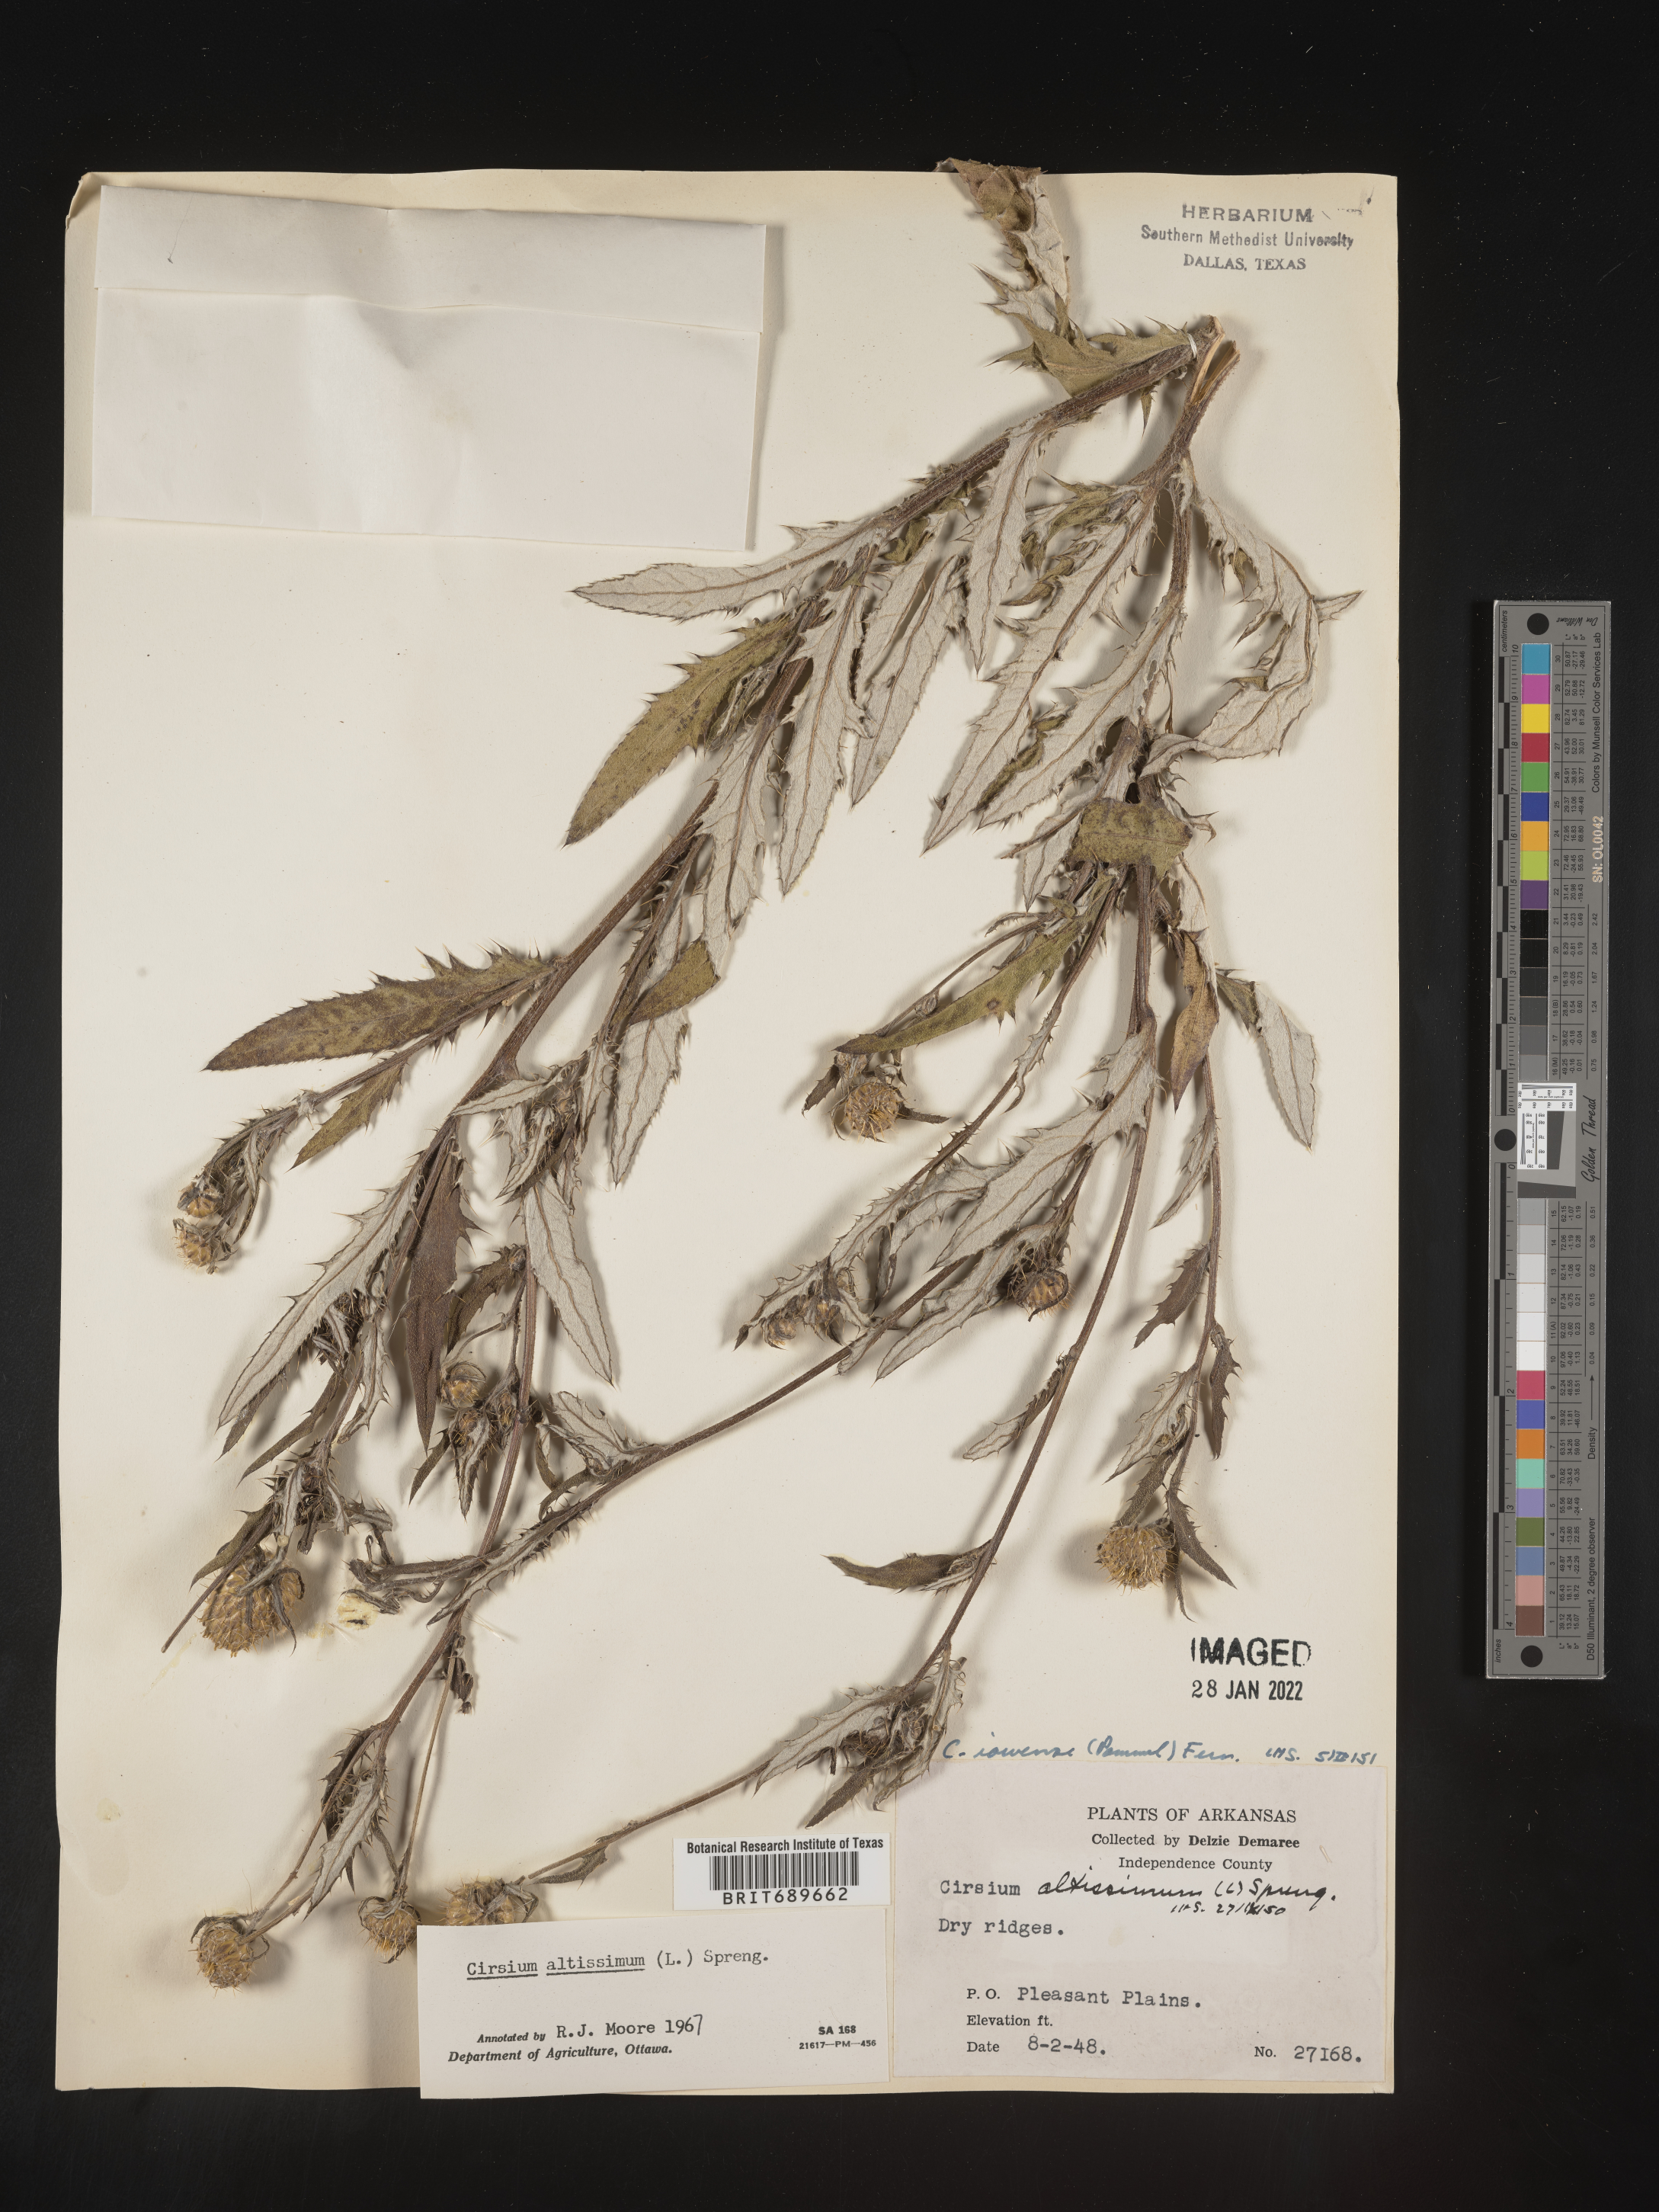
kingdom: Plantae
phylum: Tracheophyta
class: Magnoliopsida
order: Asterales
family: Asteraceae
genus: Cirsium
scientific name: Cirsium altissimum
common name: Roadside thistle
